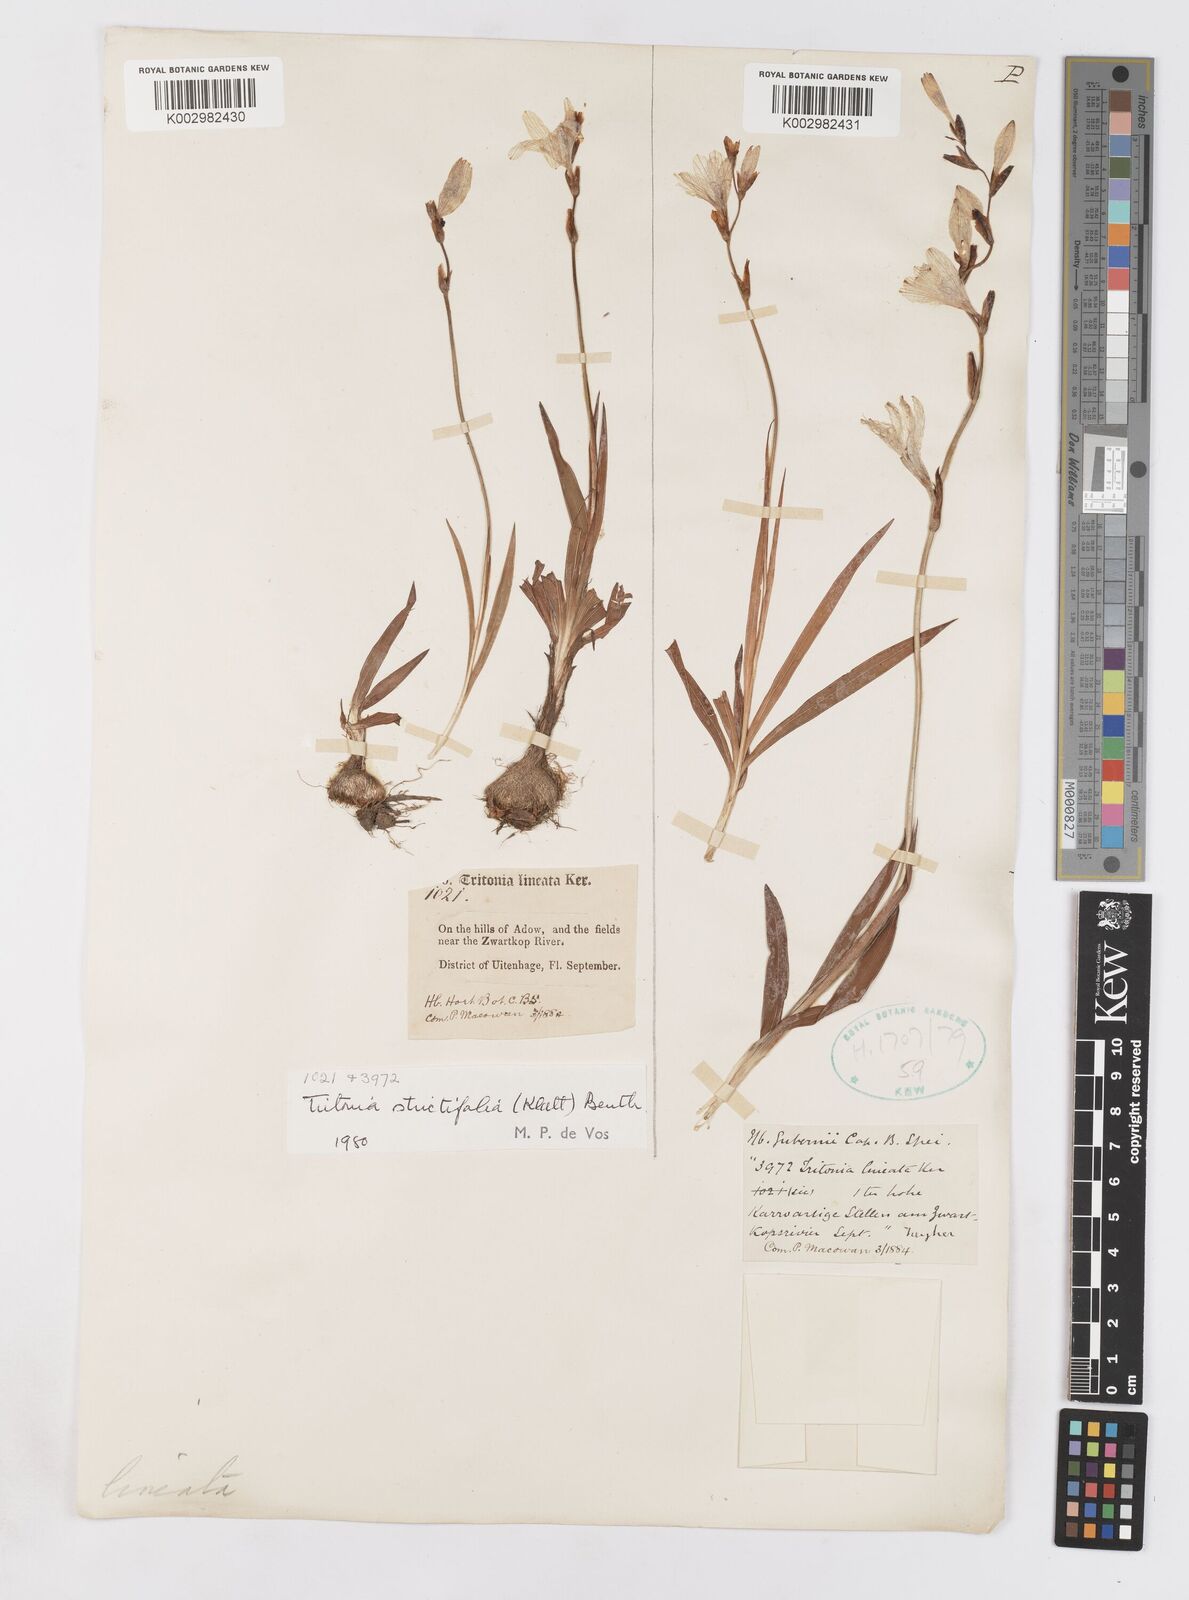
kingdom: Plantae
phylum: Tracheophyta
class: Liliopsida
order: Asparagales
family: Iridaceae
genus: Tritonia
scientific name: Tritonia laxifolia
